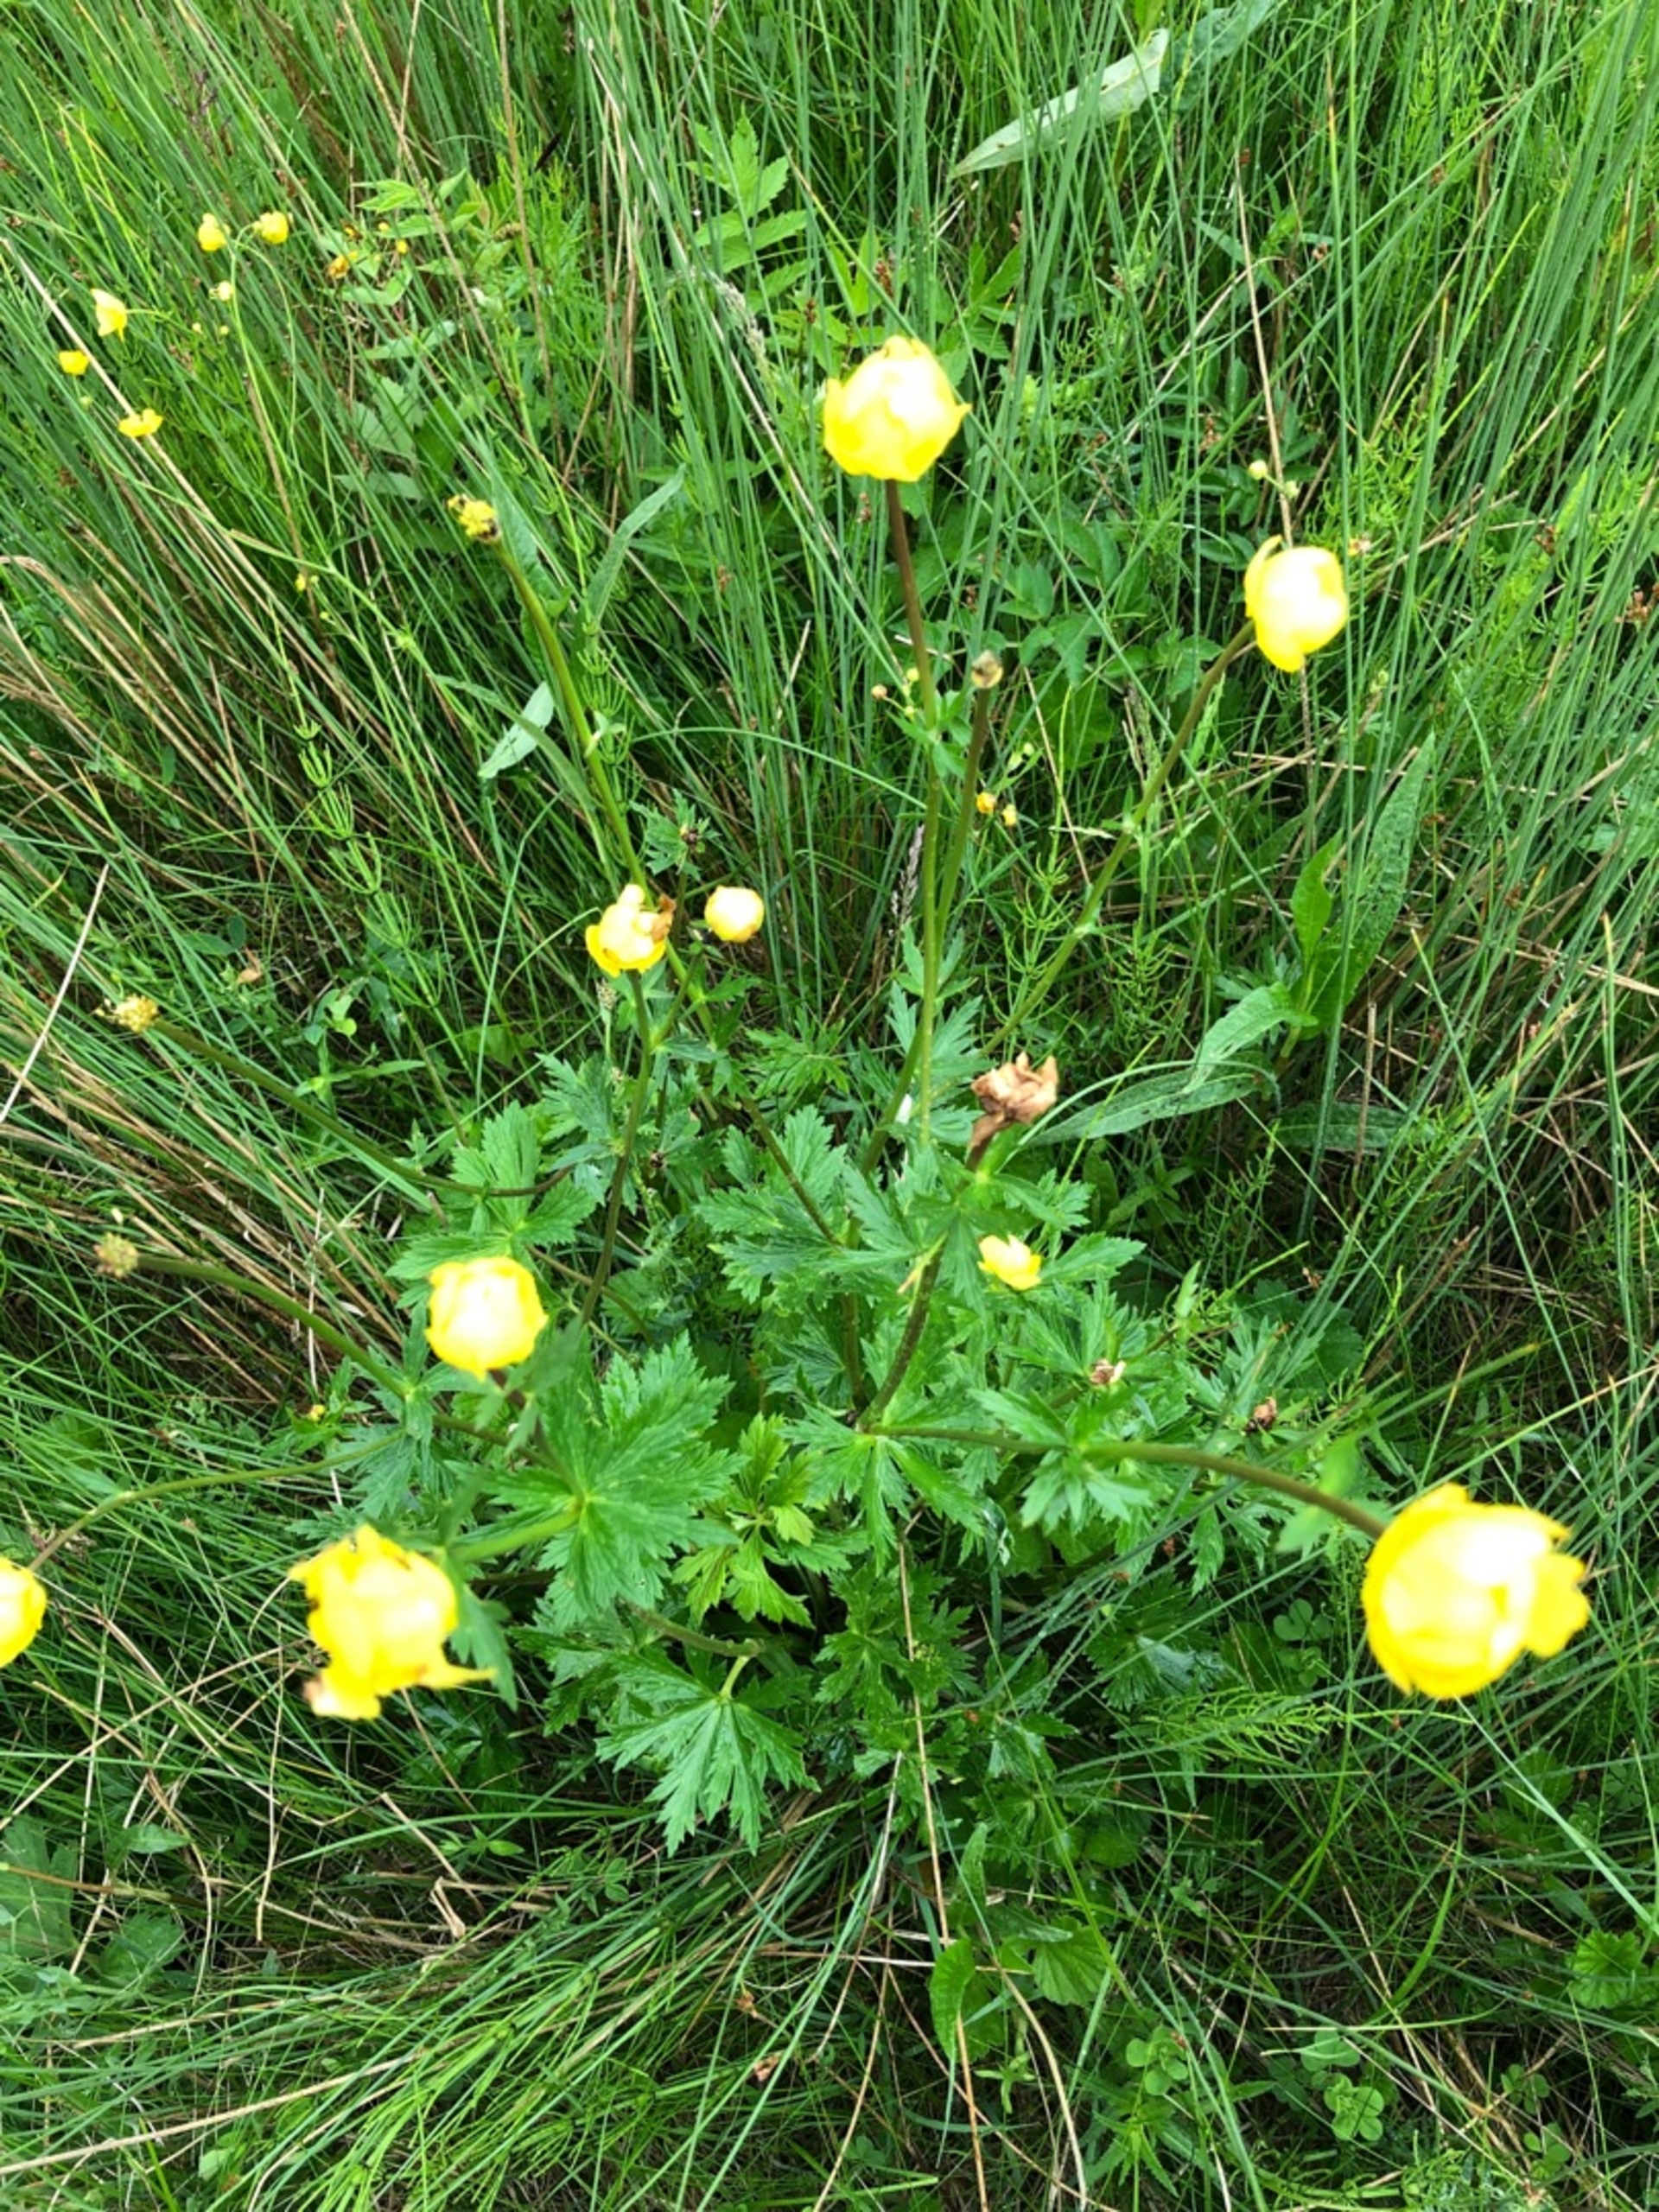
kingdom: Plantae
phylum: Tracheophyta
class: Magnoliopsida
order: Ranunculales
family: Ranunculaceae
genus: Trollius
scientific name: Trollius europaeus
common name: Engblomme
